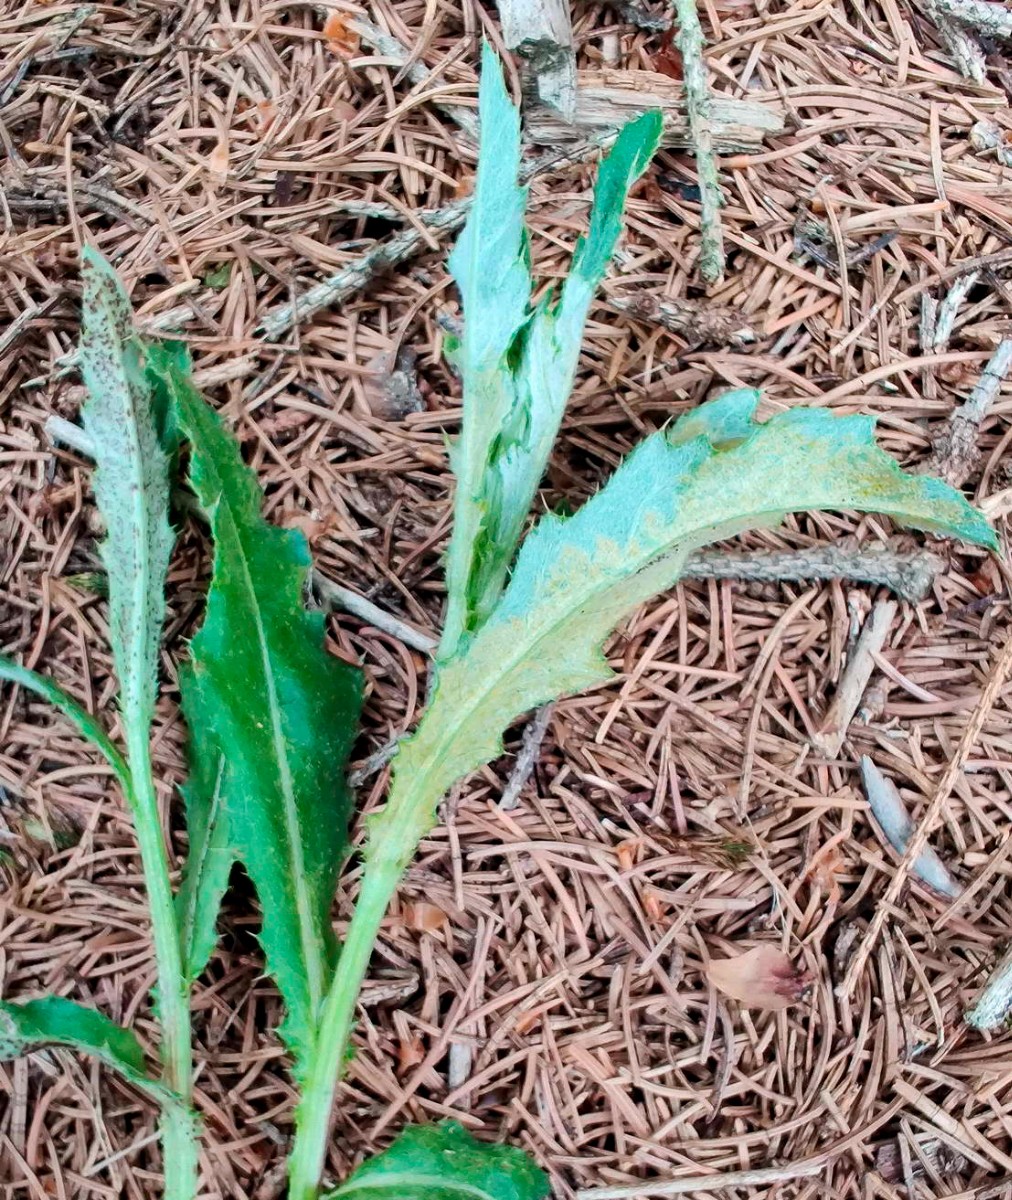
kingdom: Fungi
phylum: Basidiomycota
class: Pucciniomycetes
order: Pucciniales
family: Pucciniaceae
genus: Puccinia
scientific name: Puccinia suaveolens
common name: tidsel-tvecellerust
